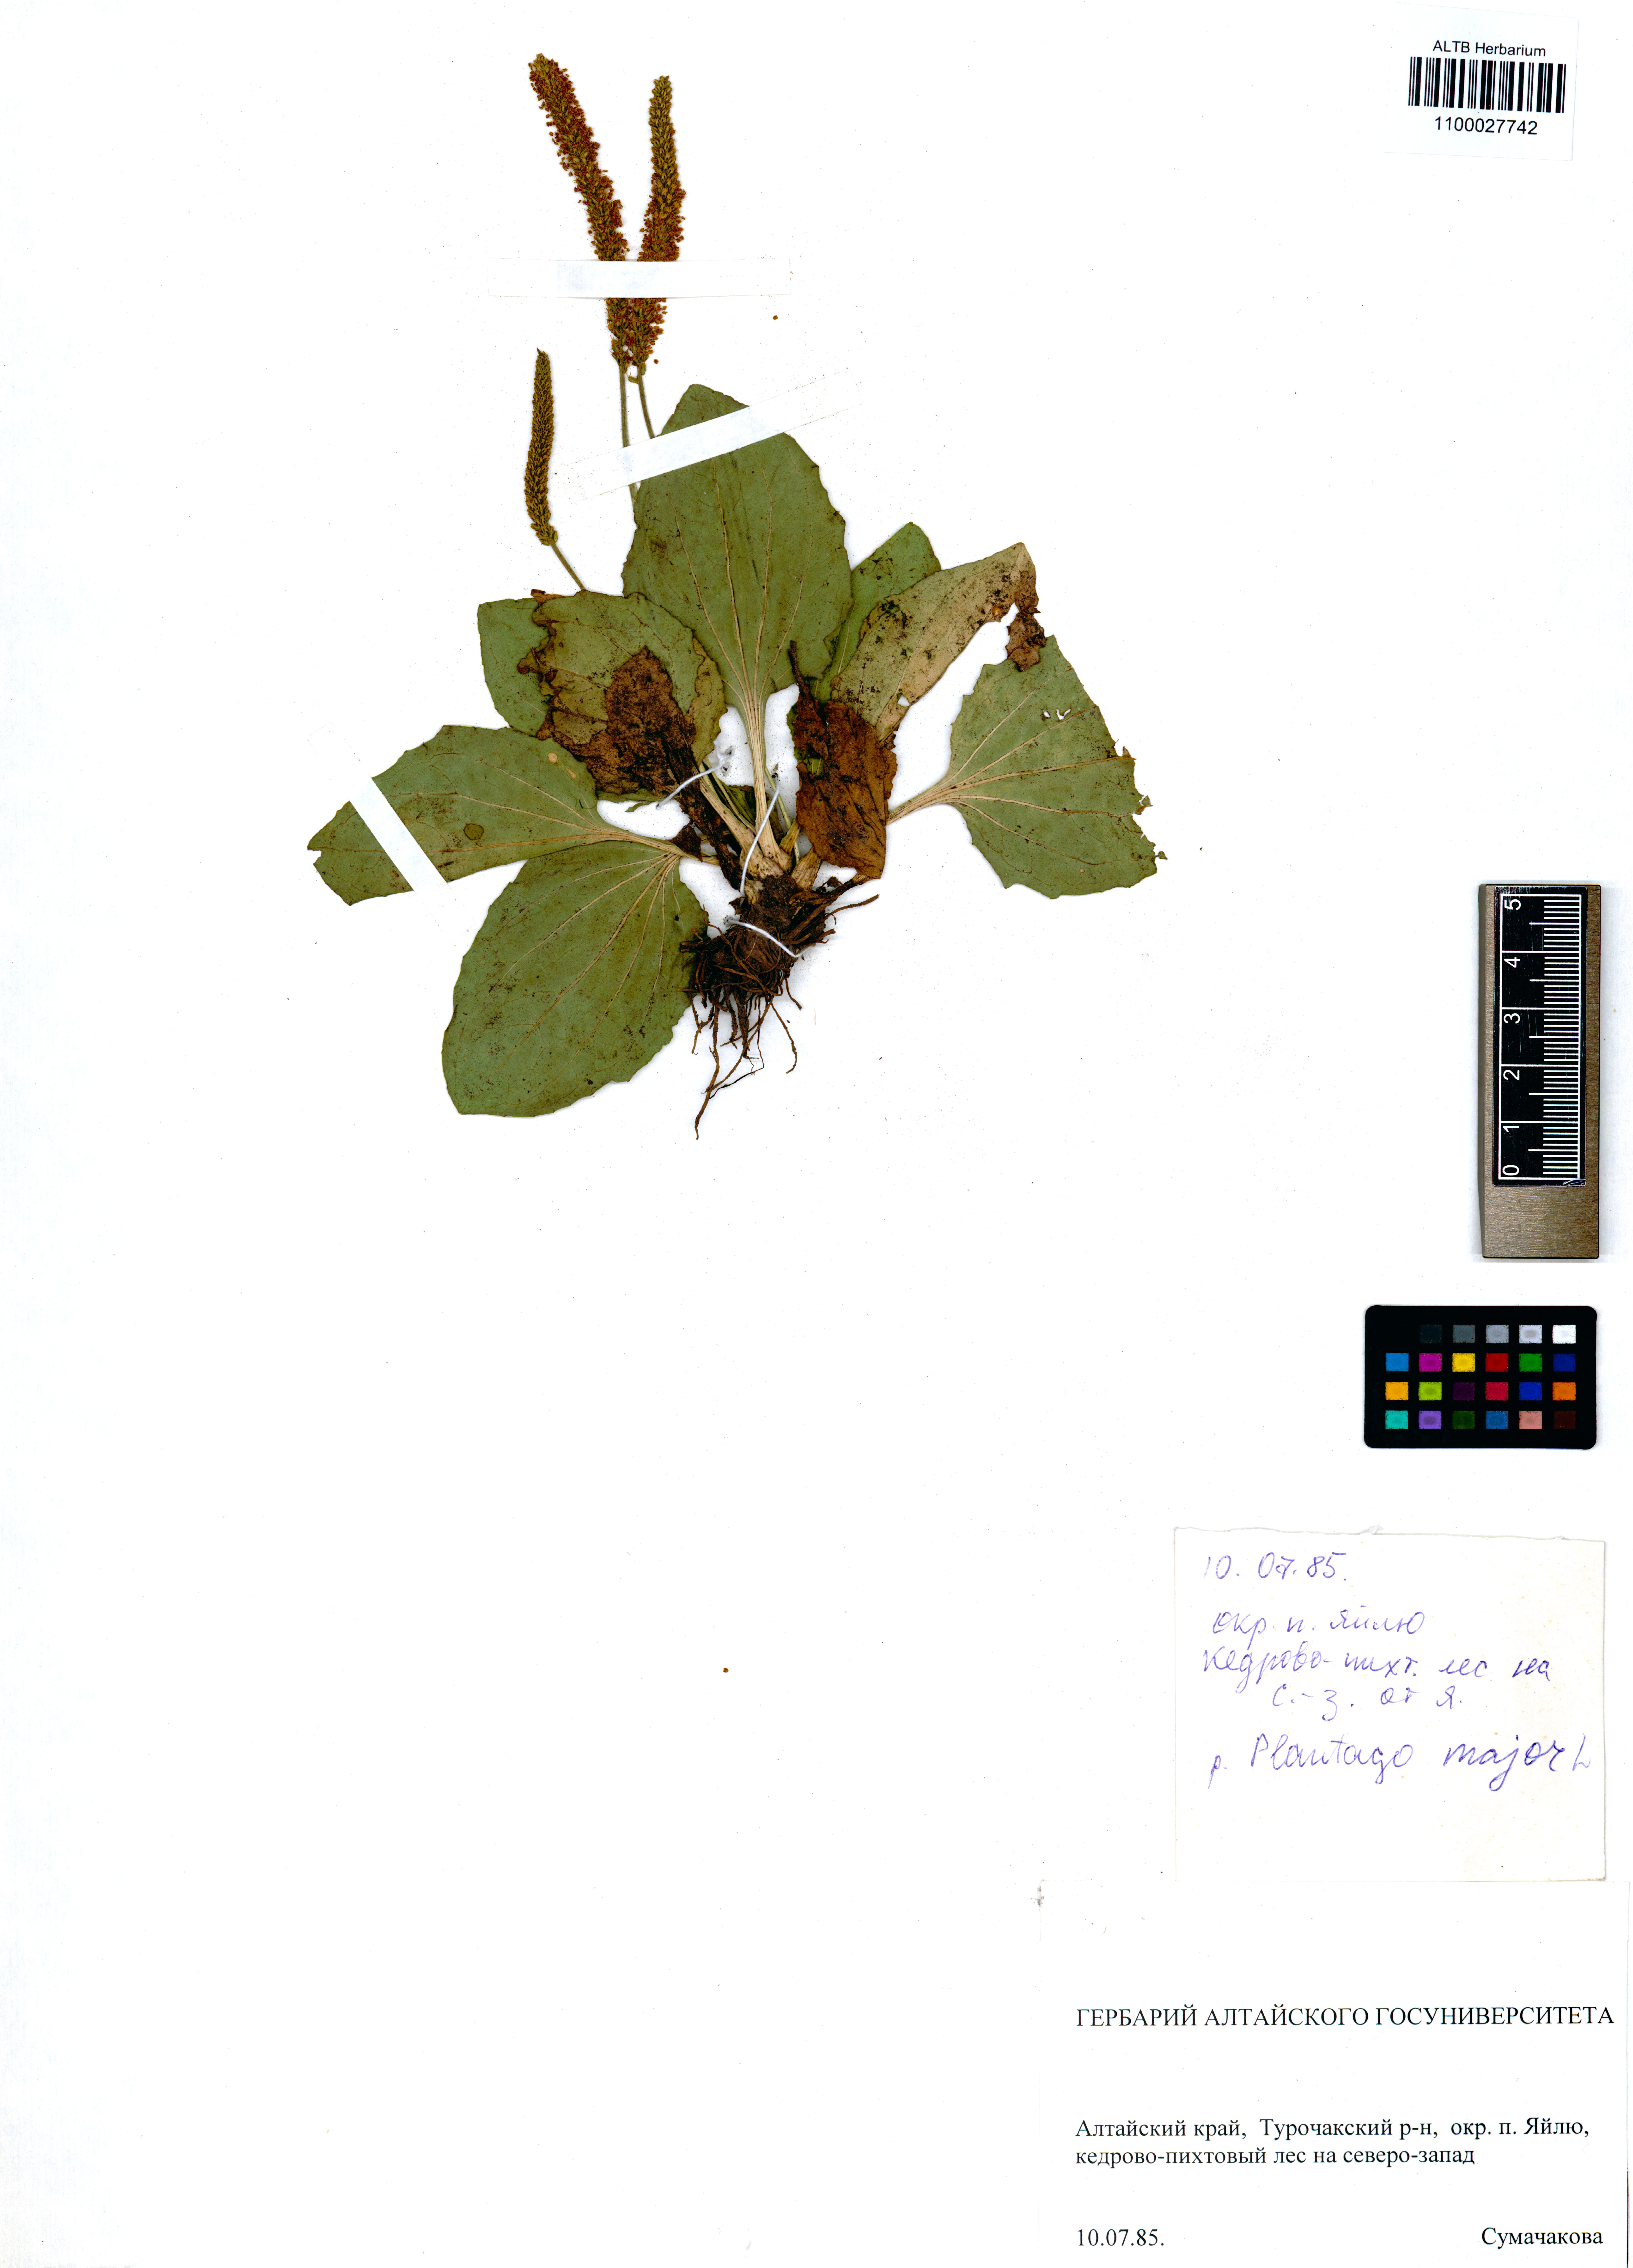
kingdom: Plantae
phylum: Tracheophyta
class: Magnoliopsida
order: Lamiales
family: Plantaginaceae
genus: Plantago
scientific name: Plantago major
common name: Common plantain
